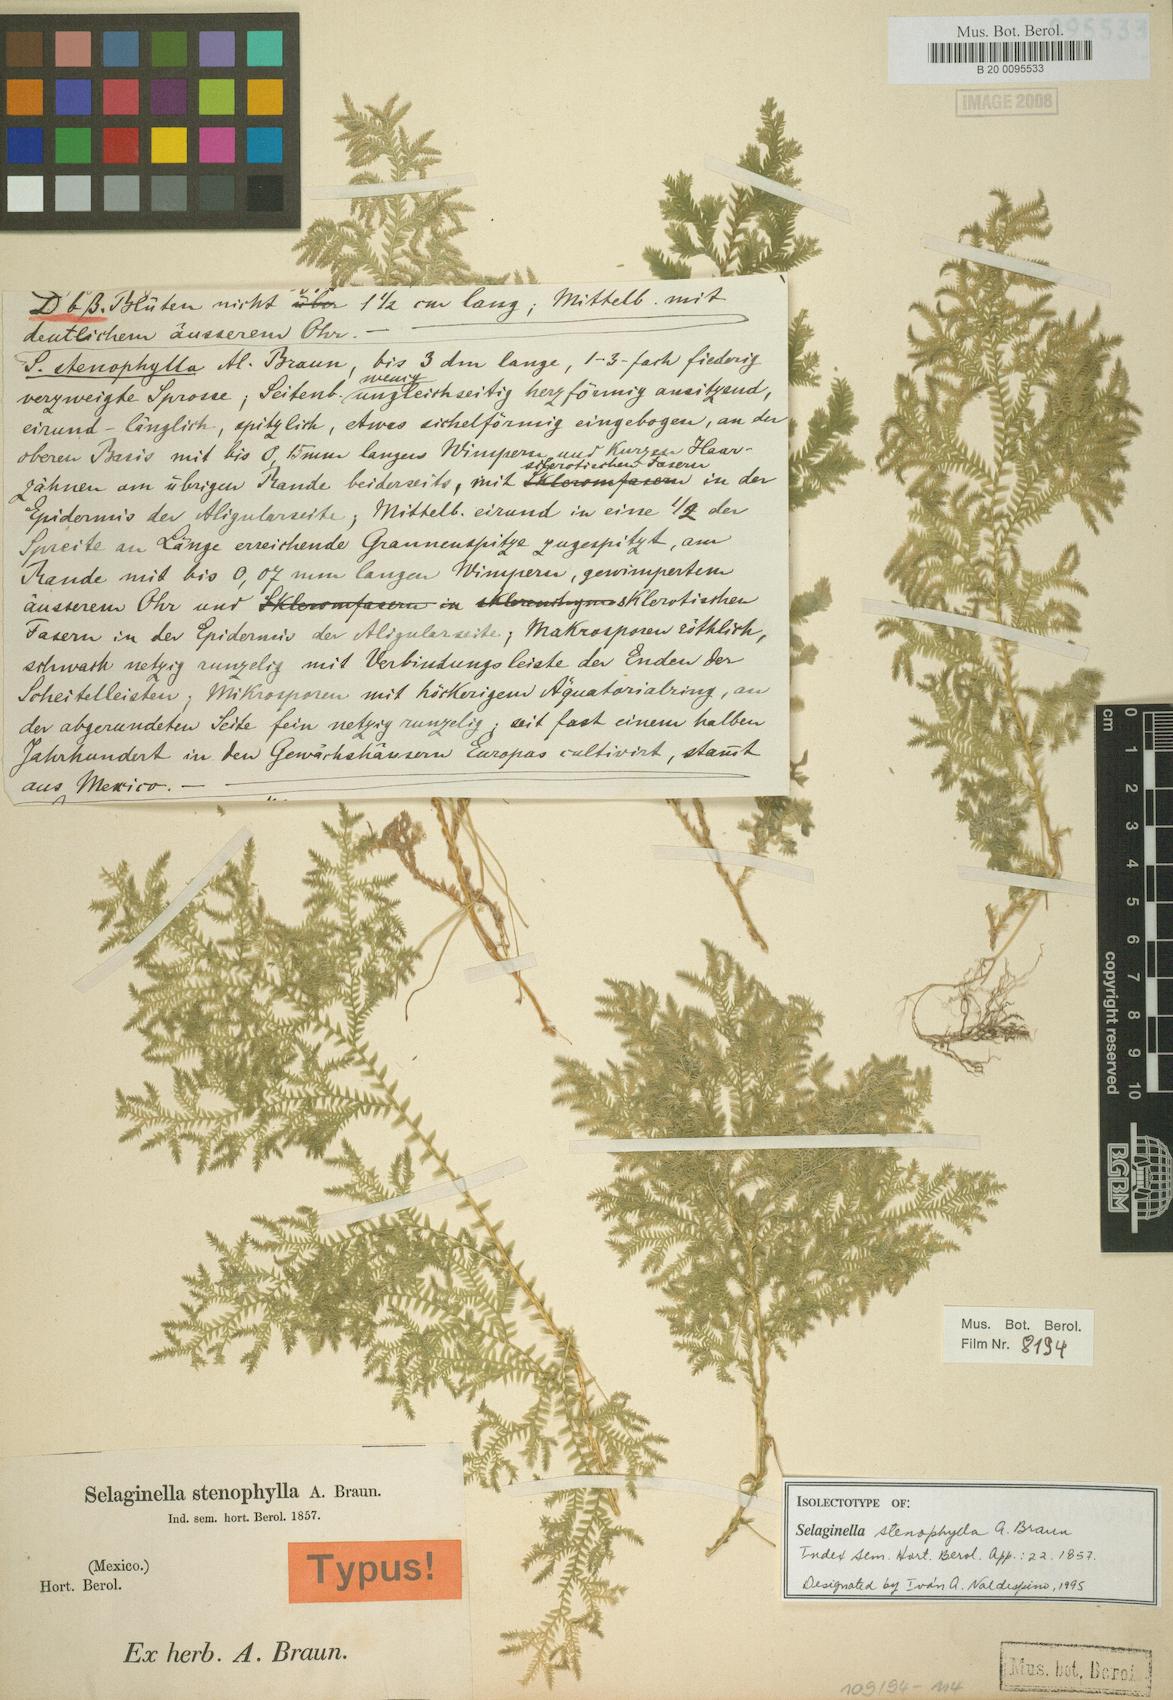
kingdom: Plantae
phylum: Tracheophyta
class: Lycopodiopsida
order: Selaginellales
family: Selaginellaceae
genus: Selaginella
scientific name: Selaginella stenophylla
